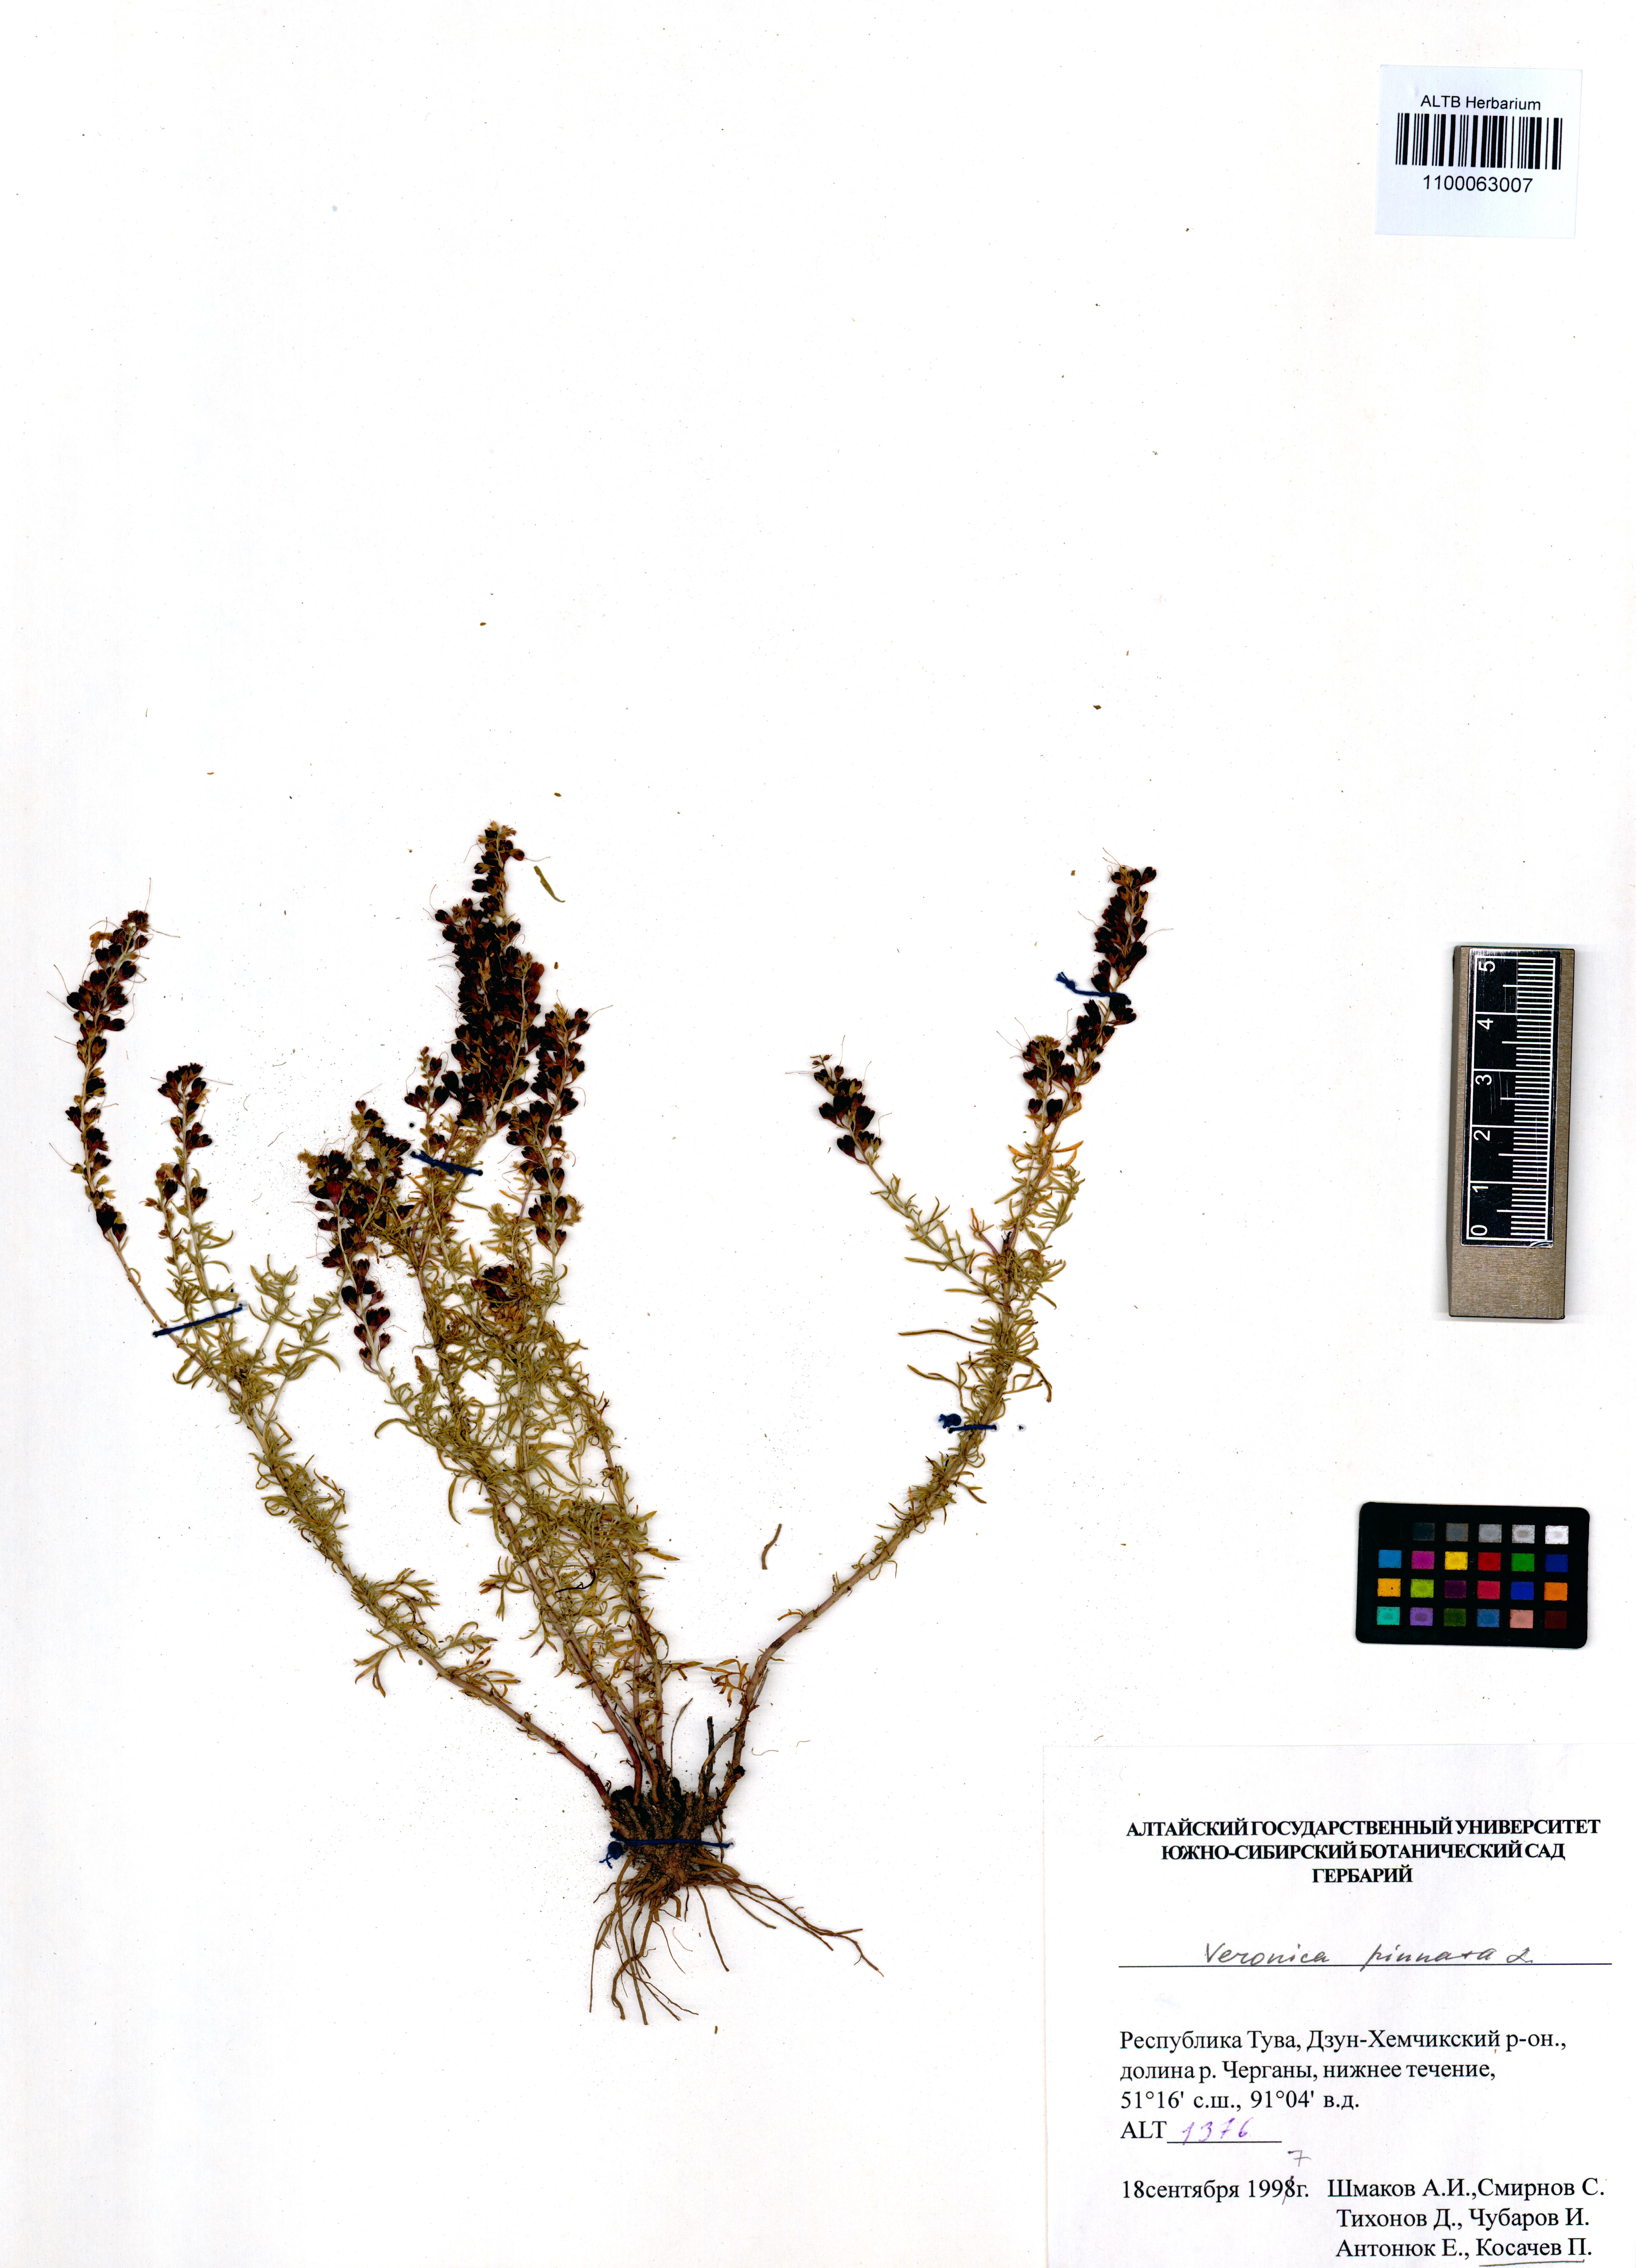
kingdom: Plantae
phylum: Tracheophyta
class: Magnoliopsida
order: Lamiales
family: Plantaginaceae
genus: Veronica
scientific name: Veronica pinnata
